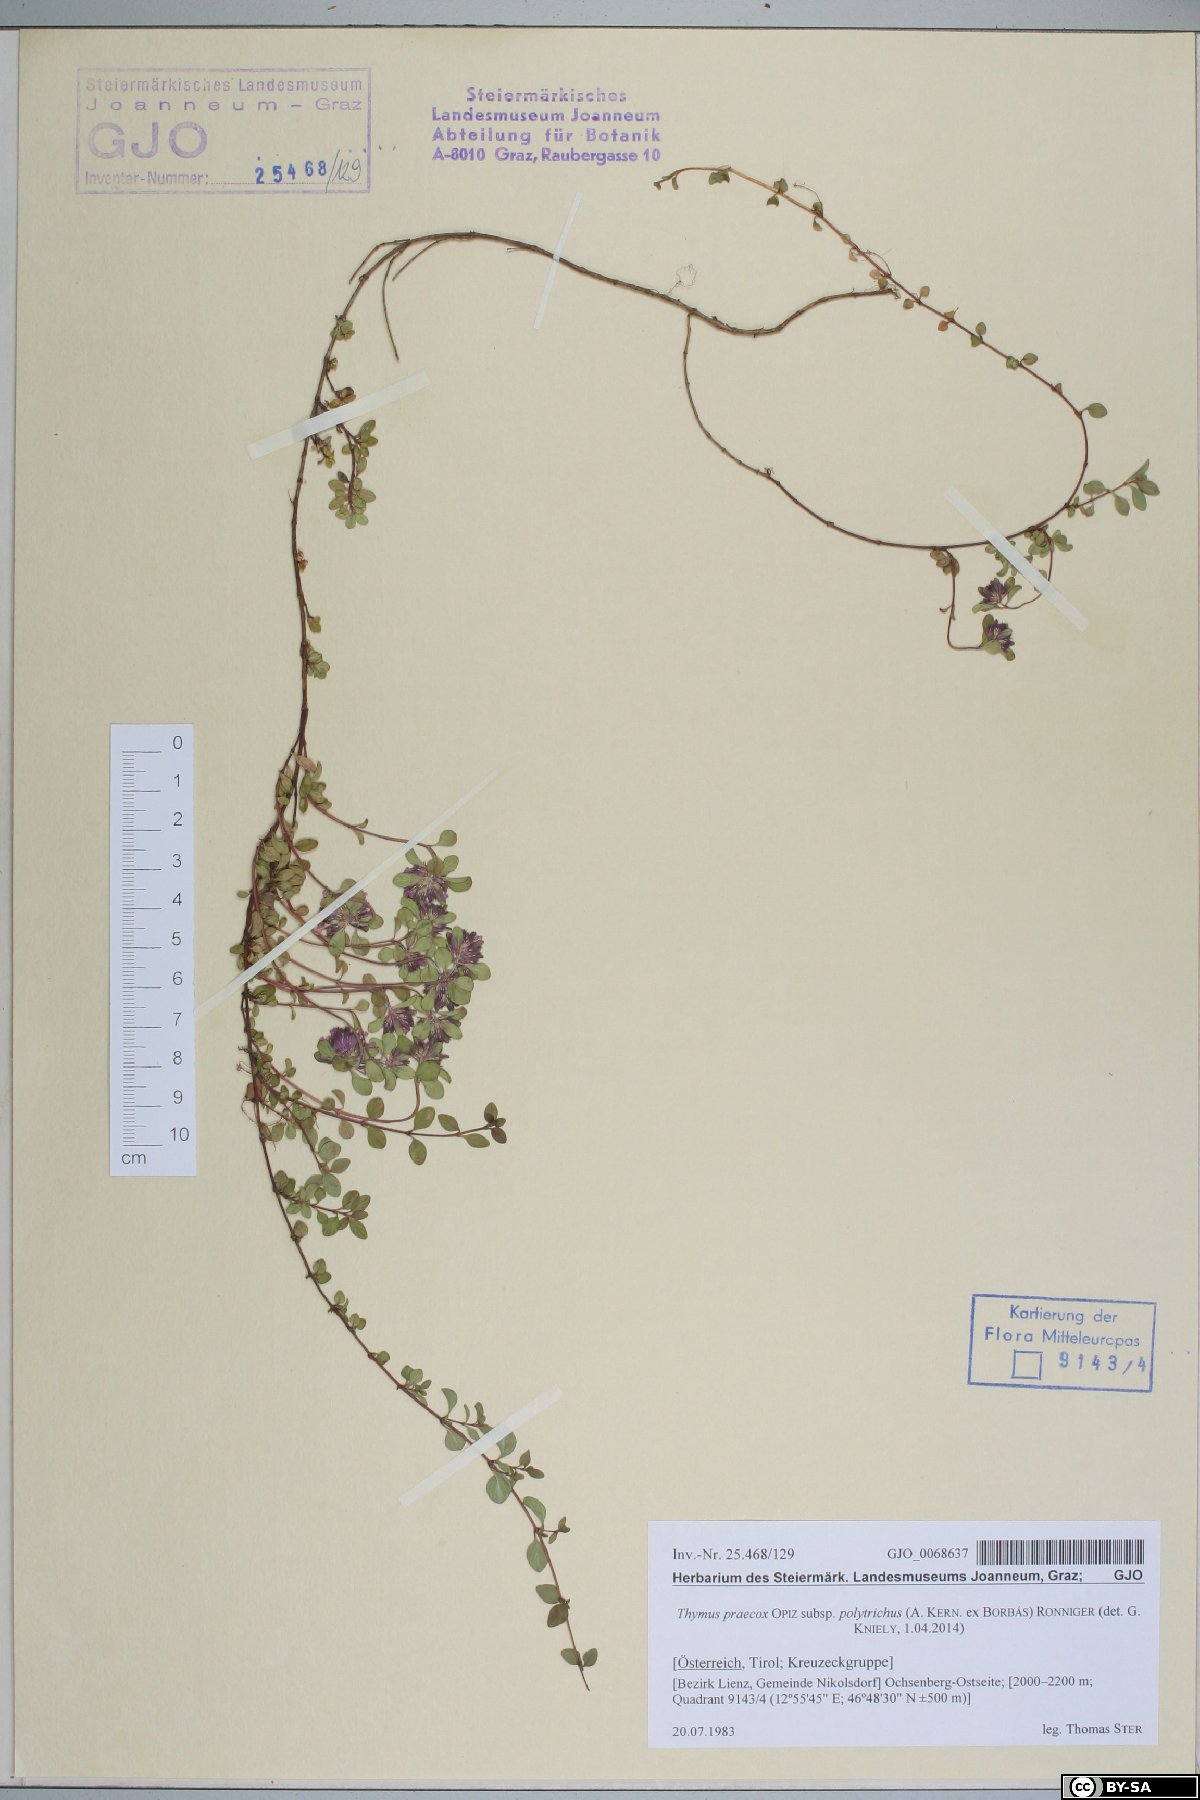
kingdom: Plantae
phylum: Tracheophyta
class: Magnoliopsida
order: Lamiales
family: Lamiaceae
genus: Thymus
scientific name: Thymus praecox
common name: Wild thyme
